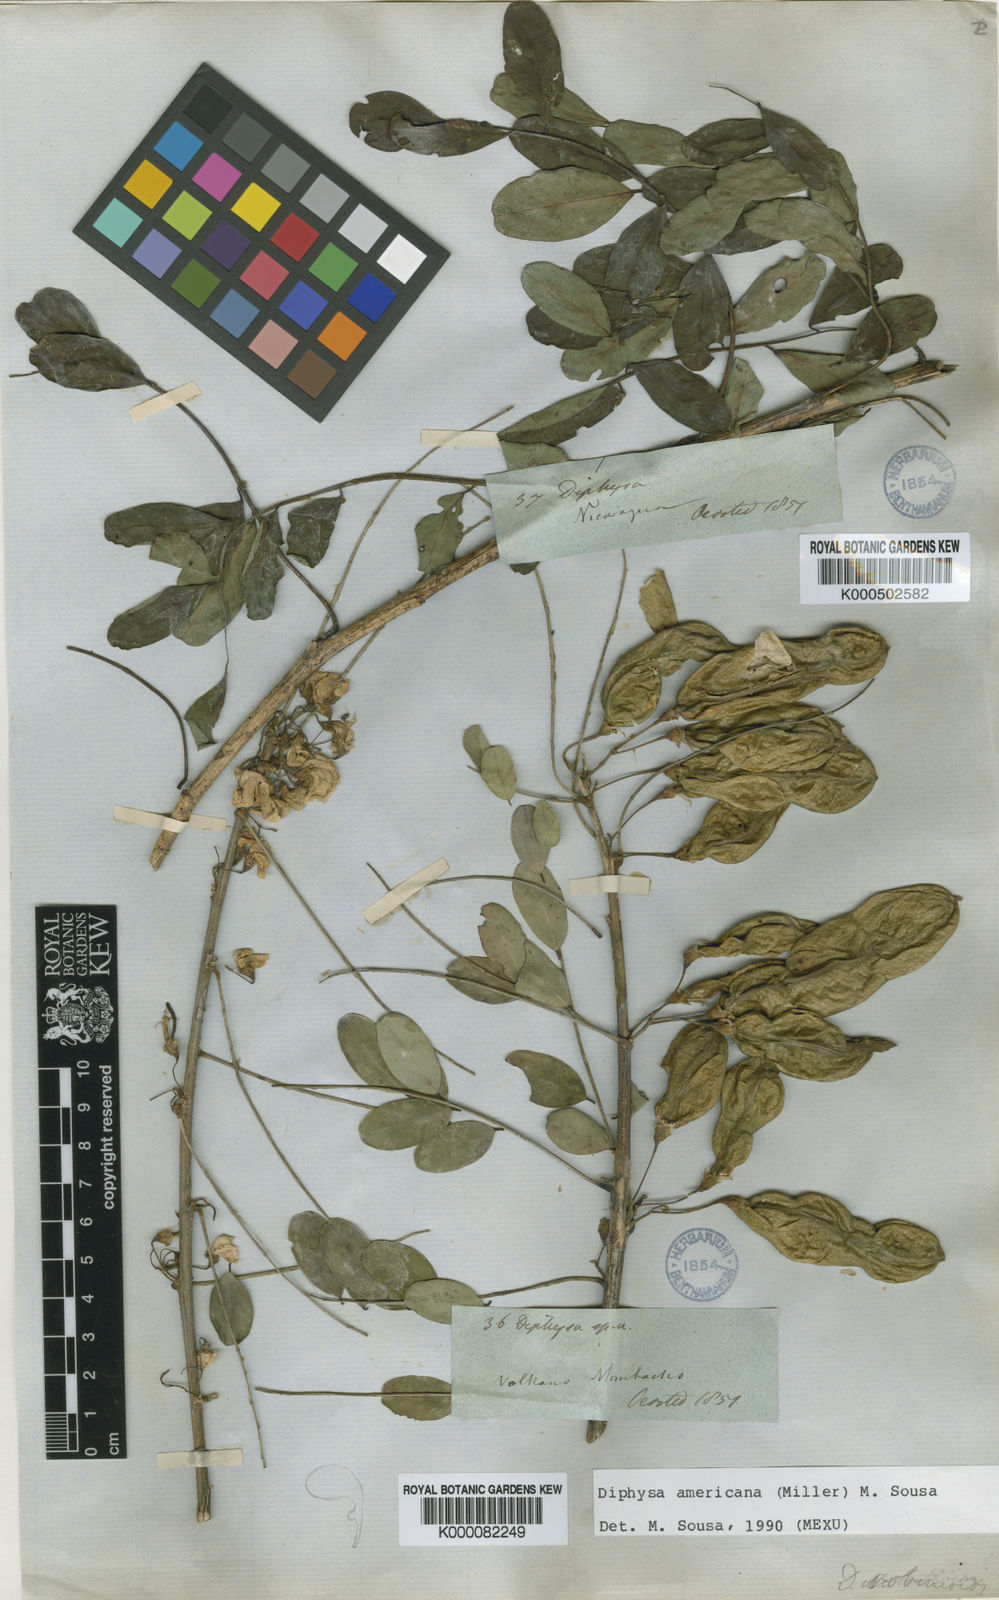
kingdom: Plantae
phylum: Tracheophyta
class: Magnoliopsida
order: Fabales
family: Fabaceae
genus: Diphysa
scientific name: Diphysa americana
